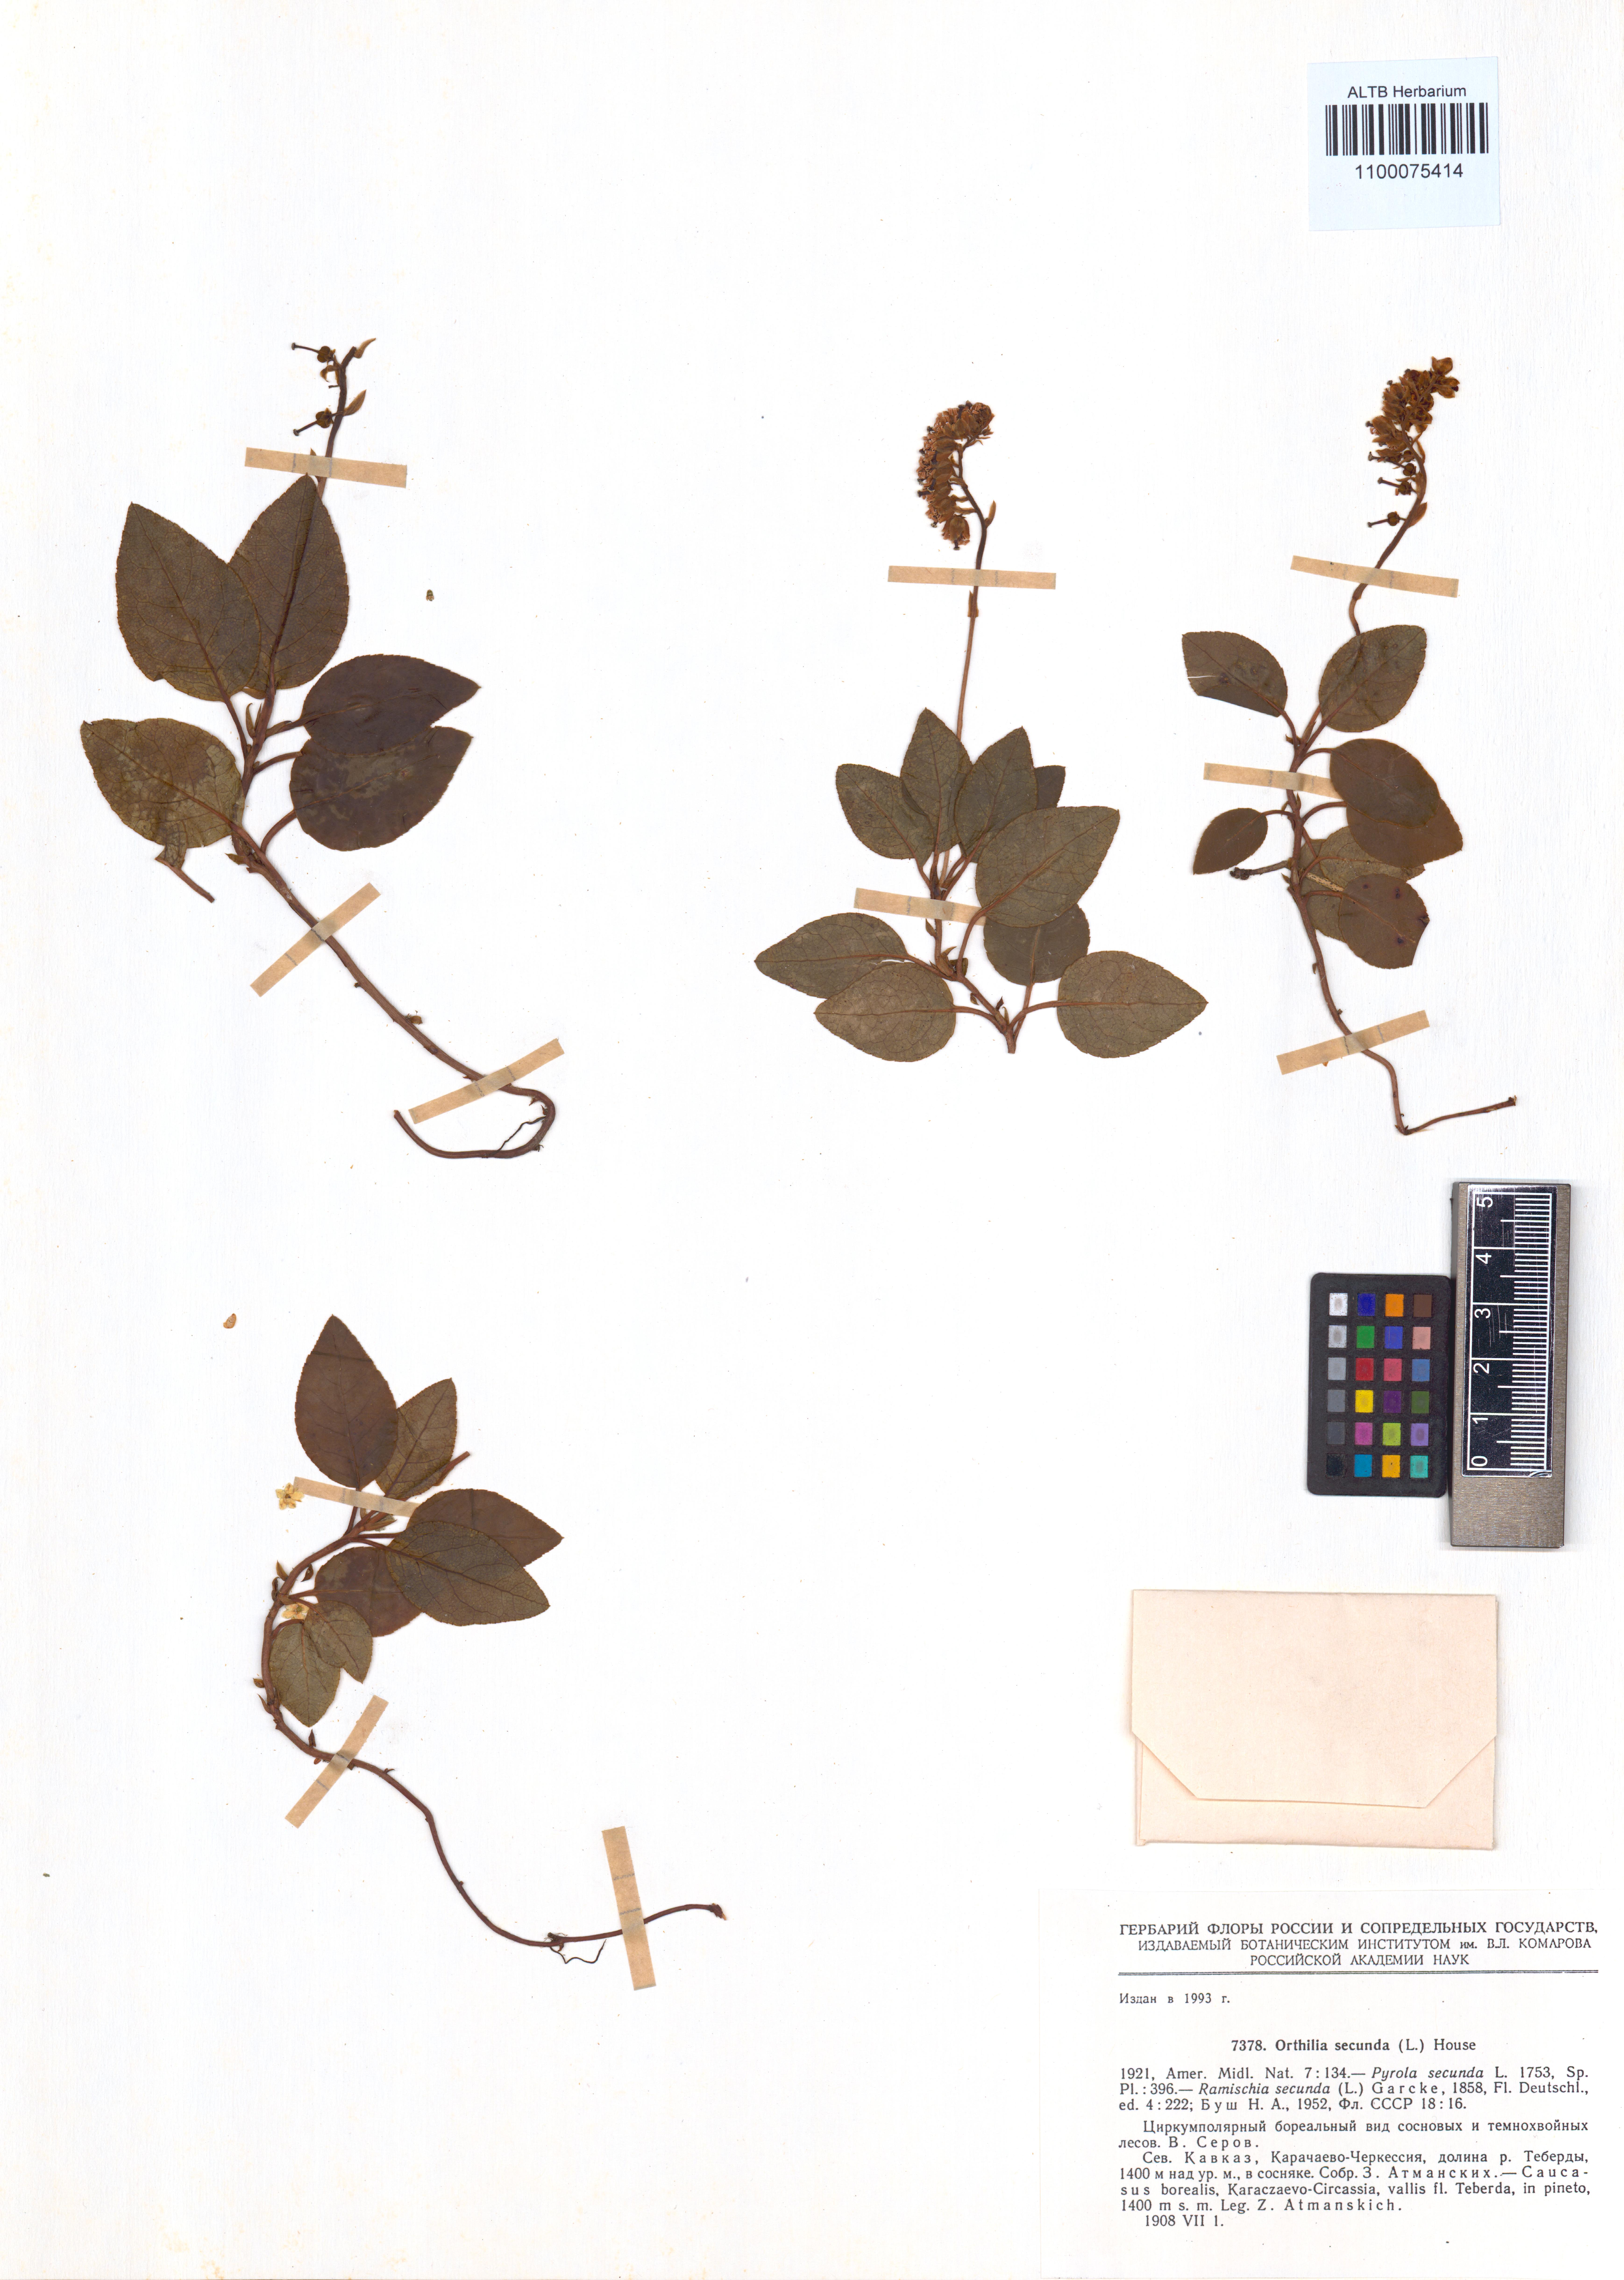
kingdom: Plantae
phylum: Tracheophyta
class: Magnoliopsida
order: Ericales
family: Ericaceae
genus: Orthilia
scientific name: Orthilia secunda
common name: One-sided orthilia
